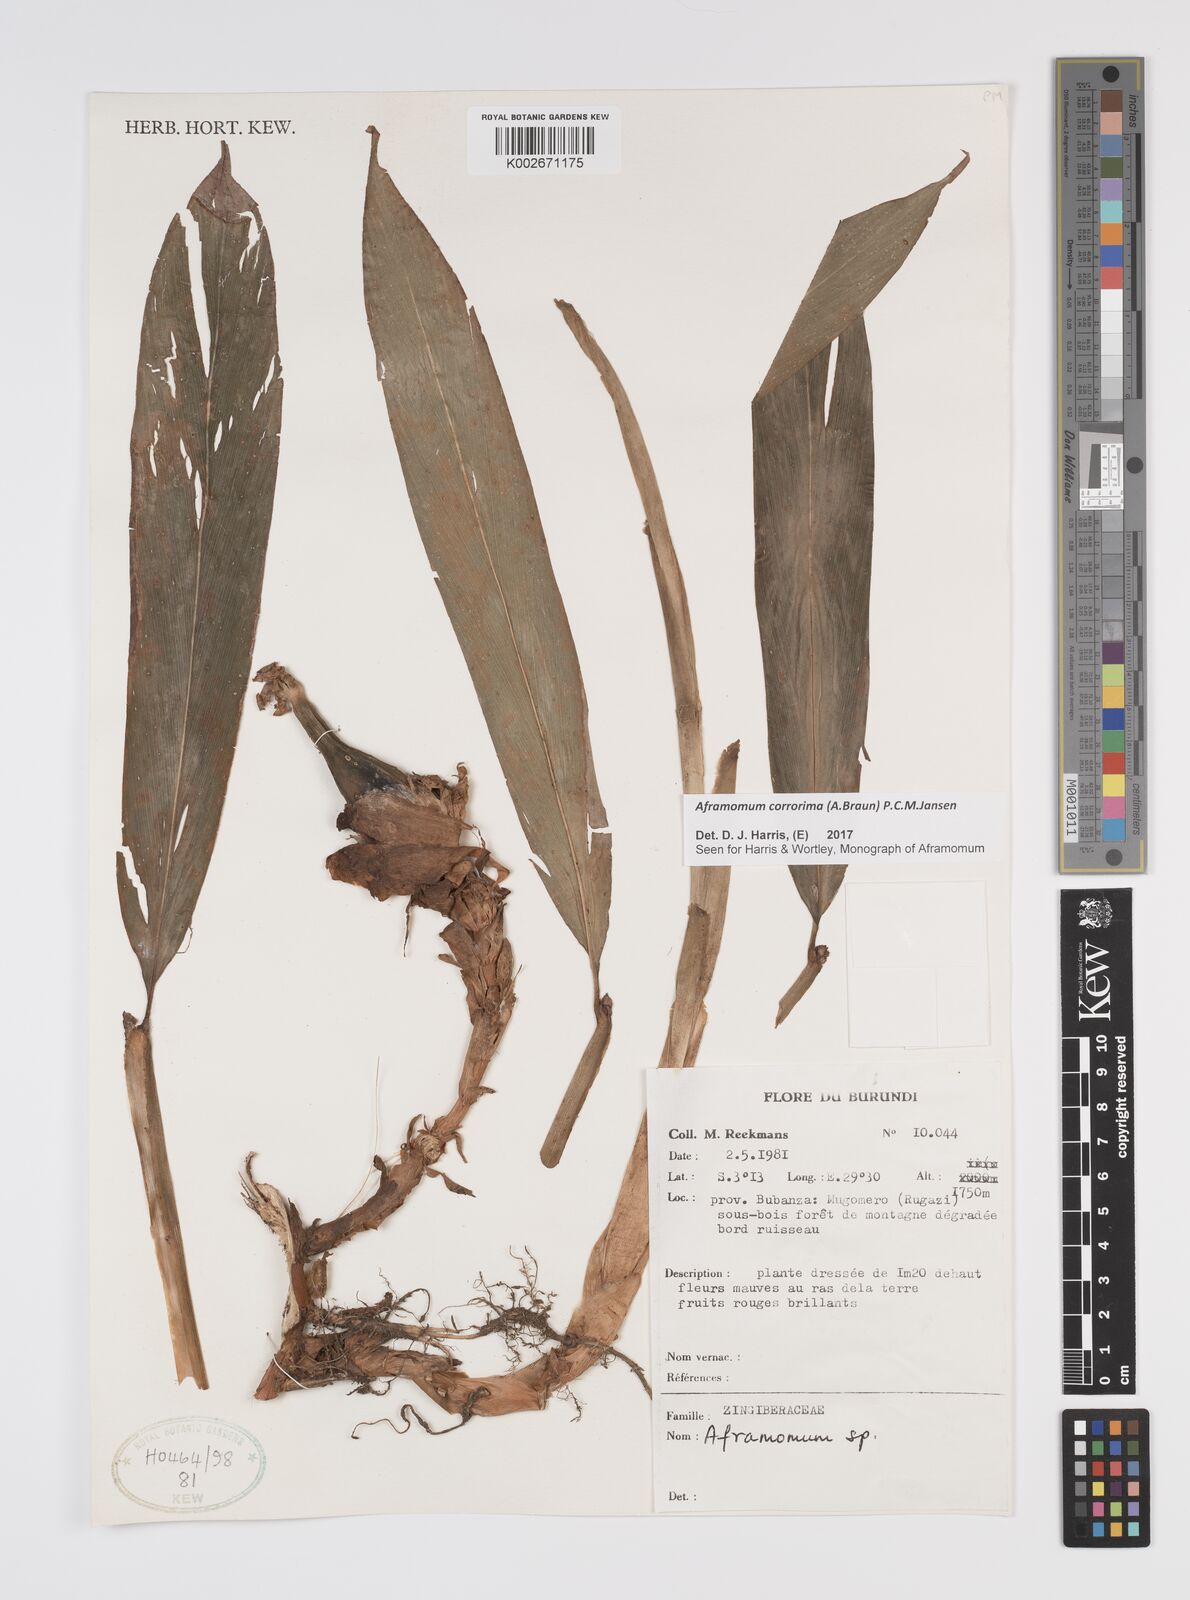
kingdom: Plantae
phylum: Tracheophyta
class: Liliopsida
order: Zingiberales
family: Zingiberaceae
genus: Aframomum
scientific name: Aframomum corrorima
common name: Ethiopian cardamom
